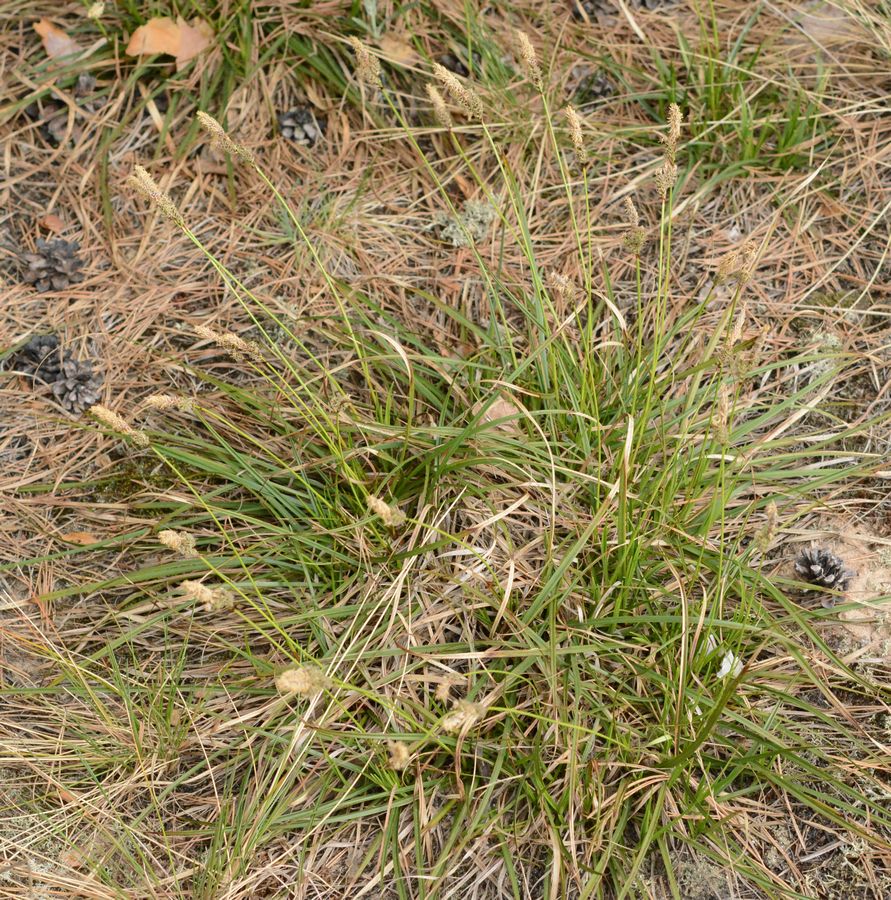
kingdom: Plantae
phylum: Tracheophyta
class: Liliopsida
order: Poales
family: Cyperaceae
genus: Carex
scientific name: Carex
